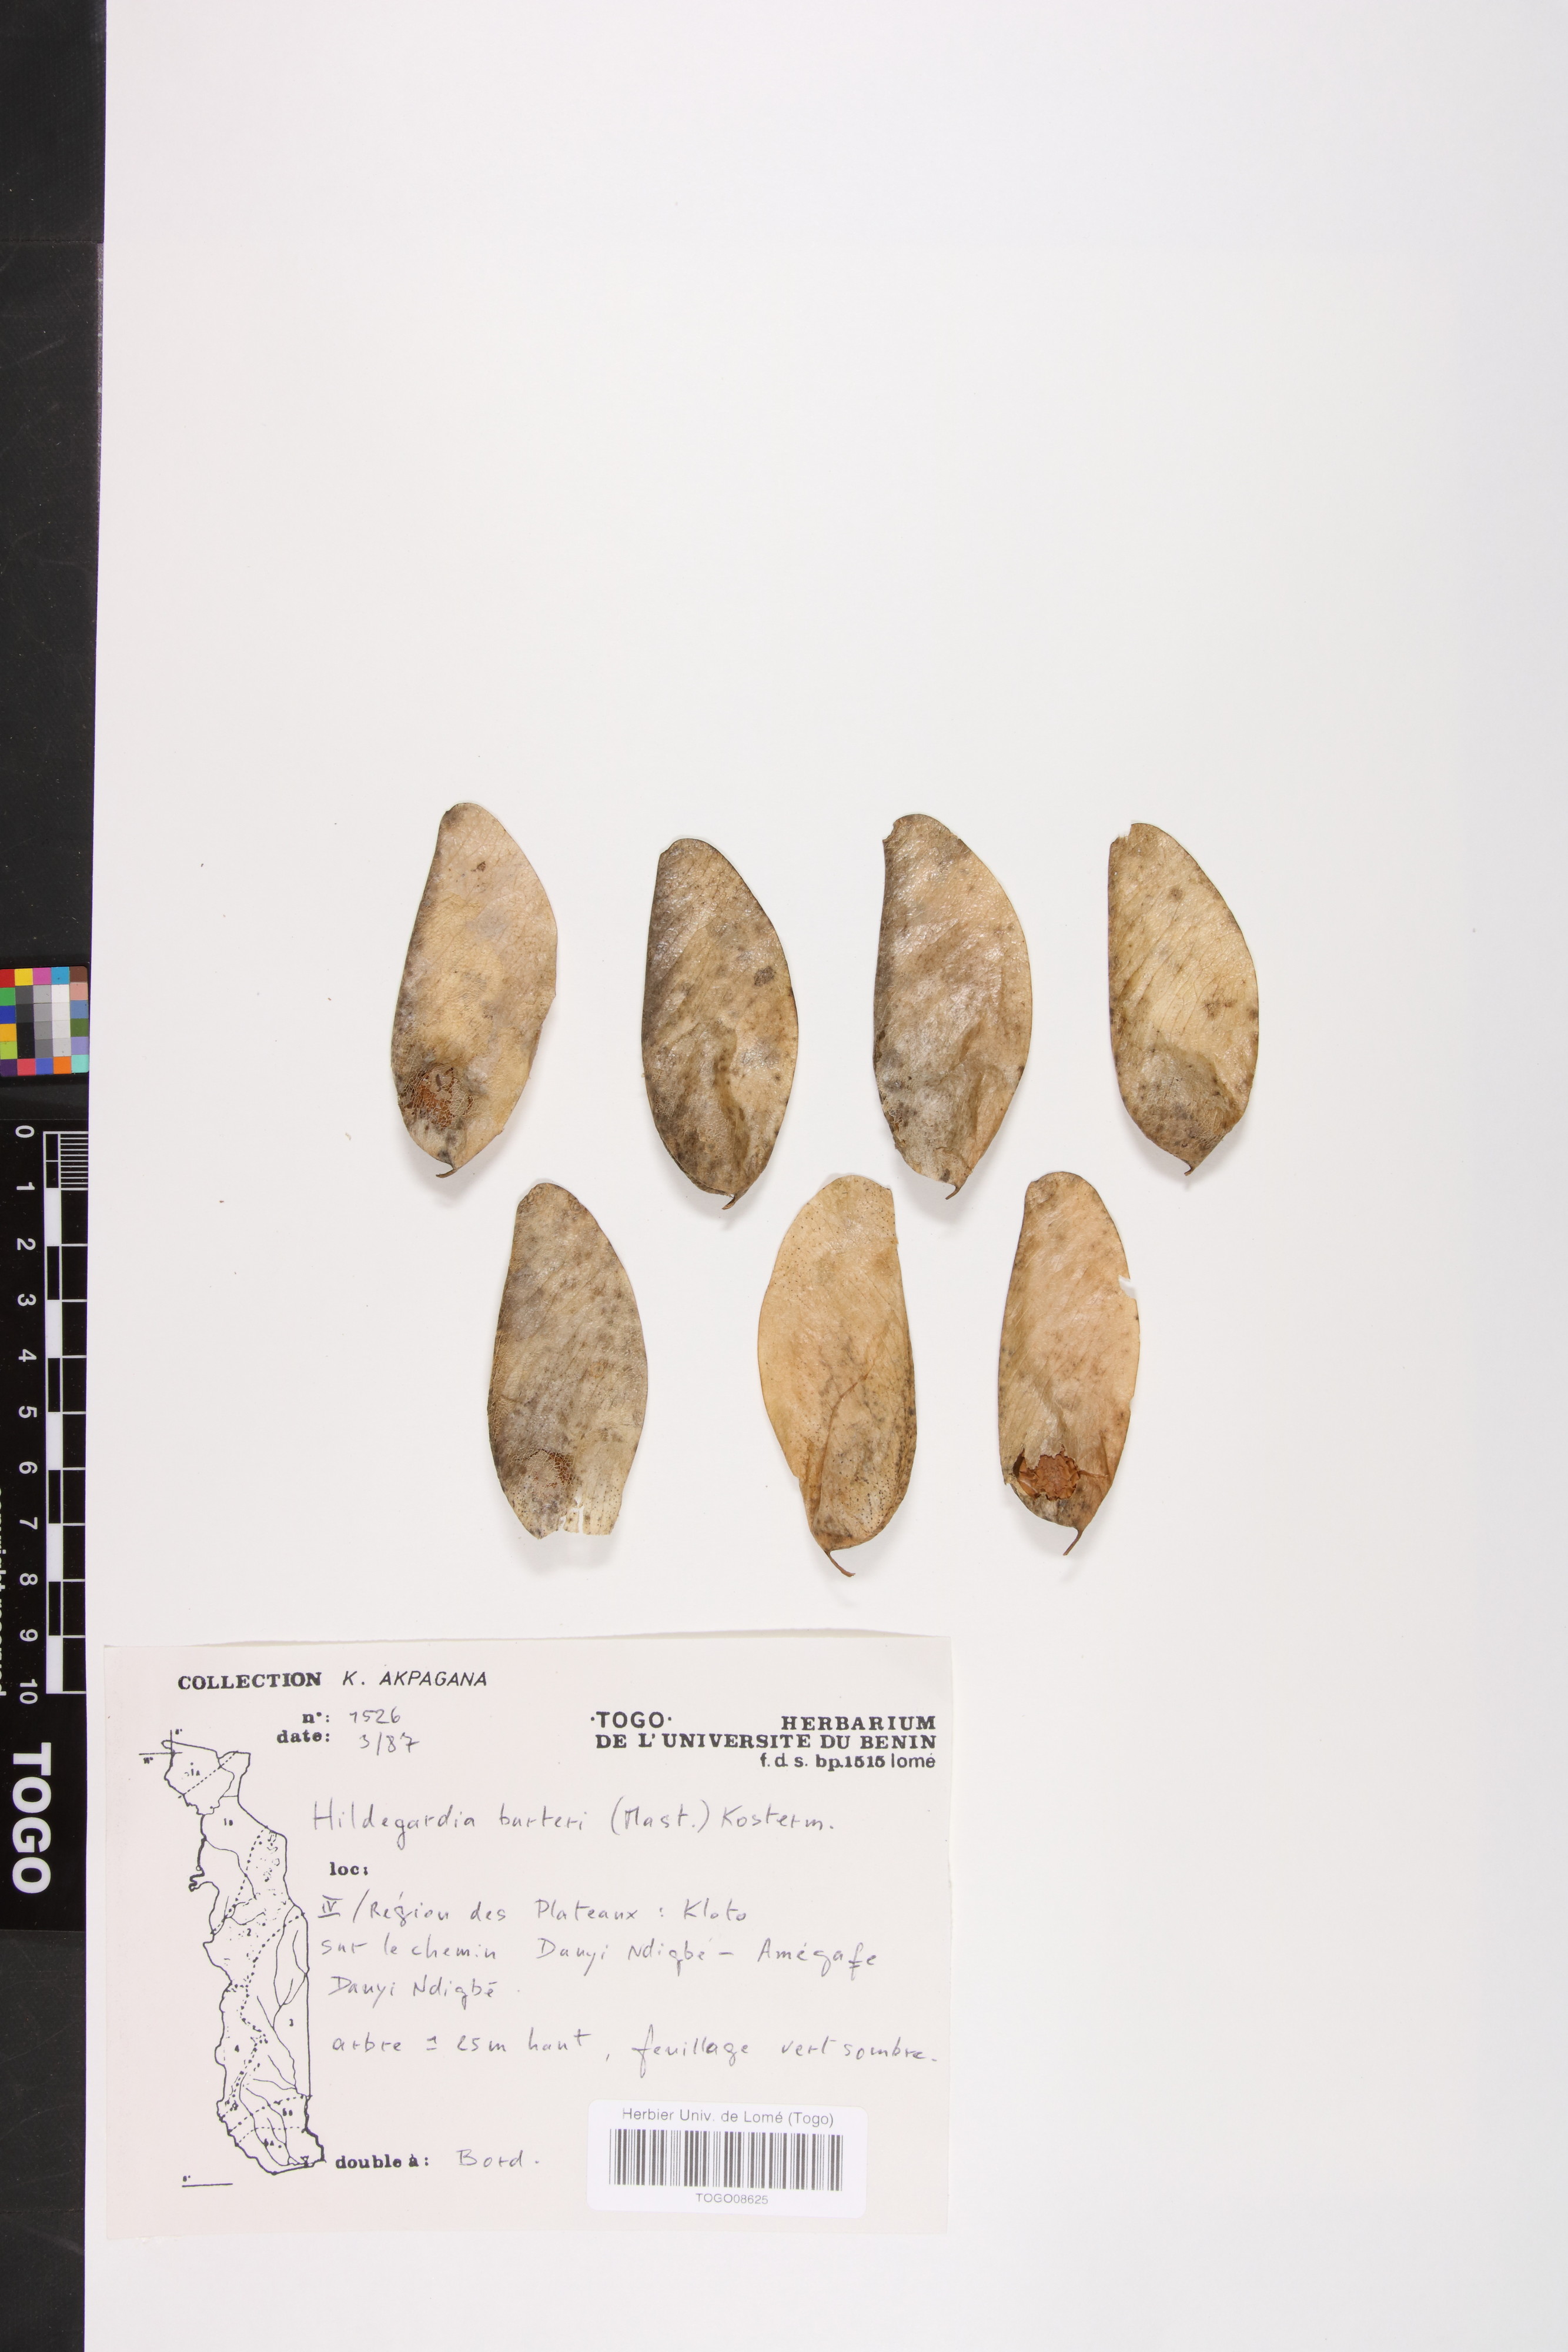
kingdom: Plantae
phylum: Tracheophyta
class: Magnoliopsida
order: Malvales
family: Malvaceae
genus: Hildegardia
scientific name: Hildegardia barteri
